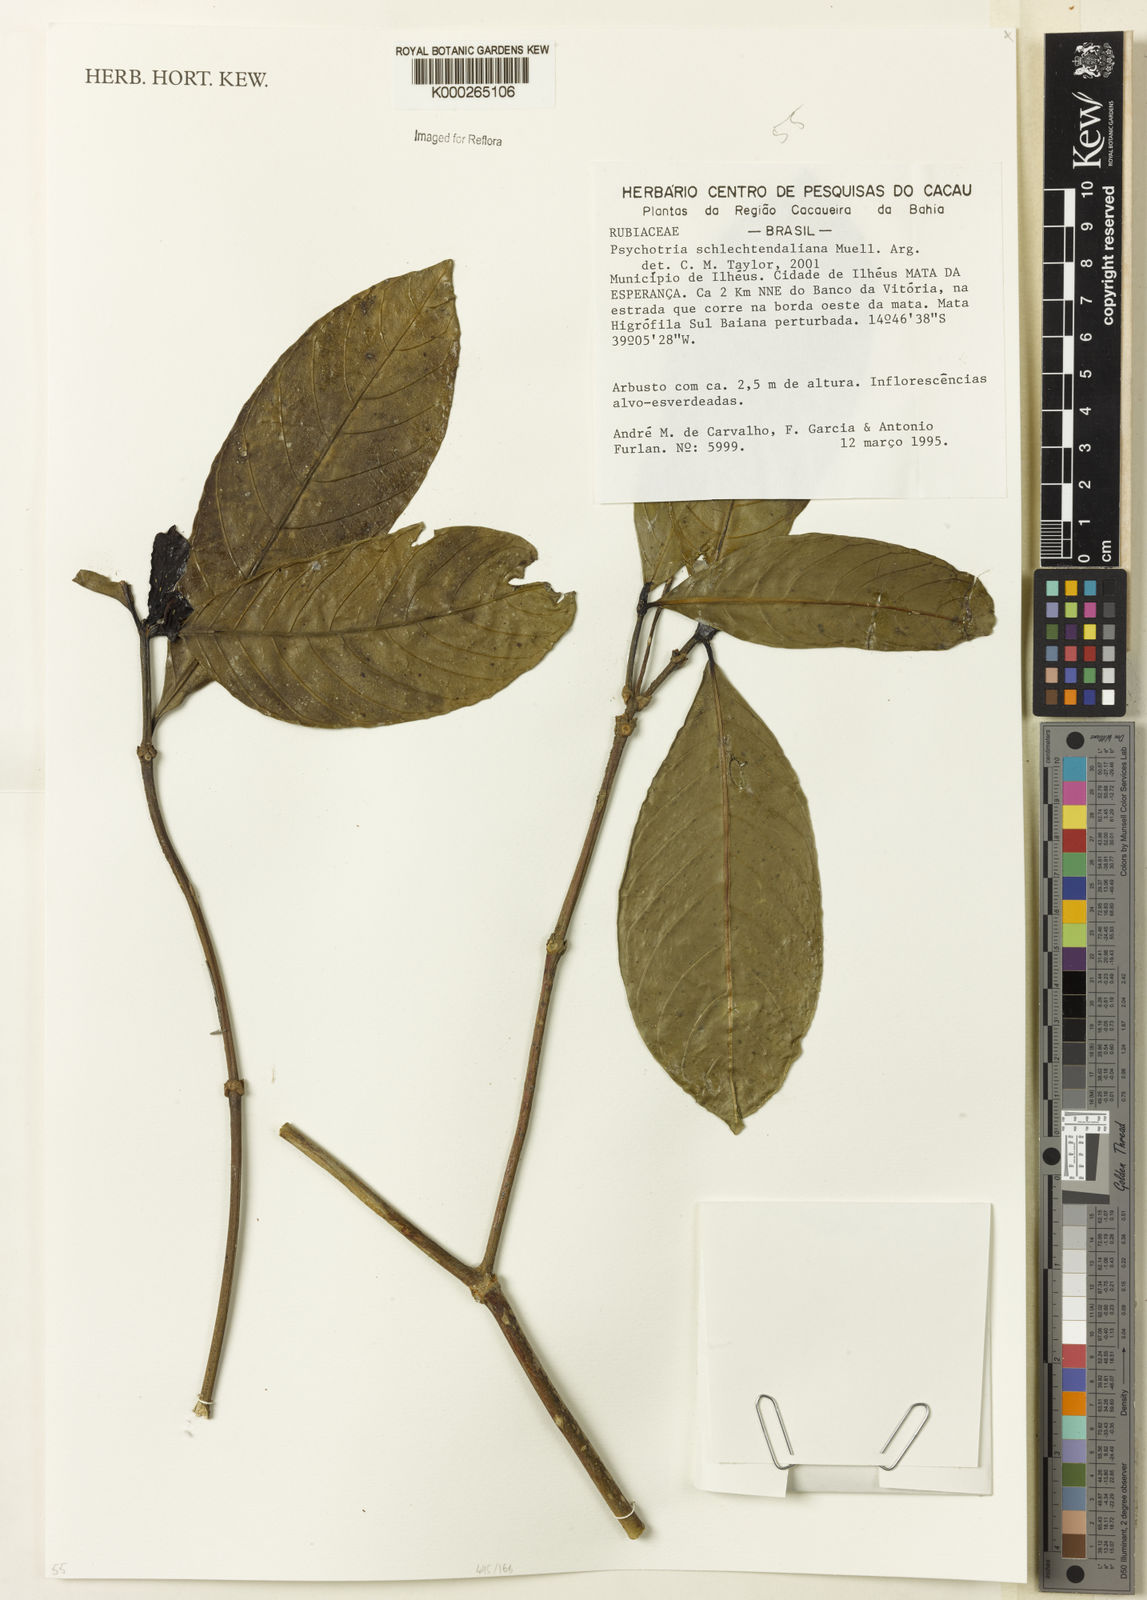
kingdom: Plantae
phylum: Tracheophyta
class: Magnoliopsida
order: Gentianales
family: Rubiaceae
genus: Psychotria
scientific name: Psychotria
